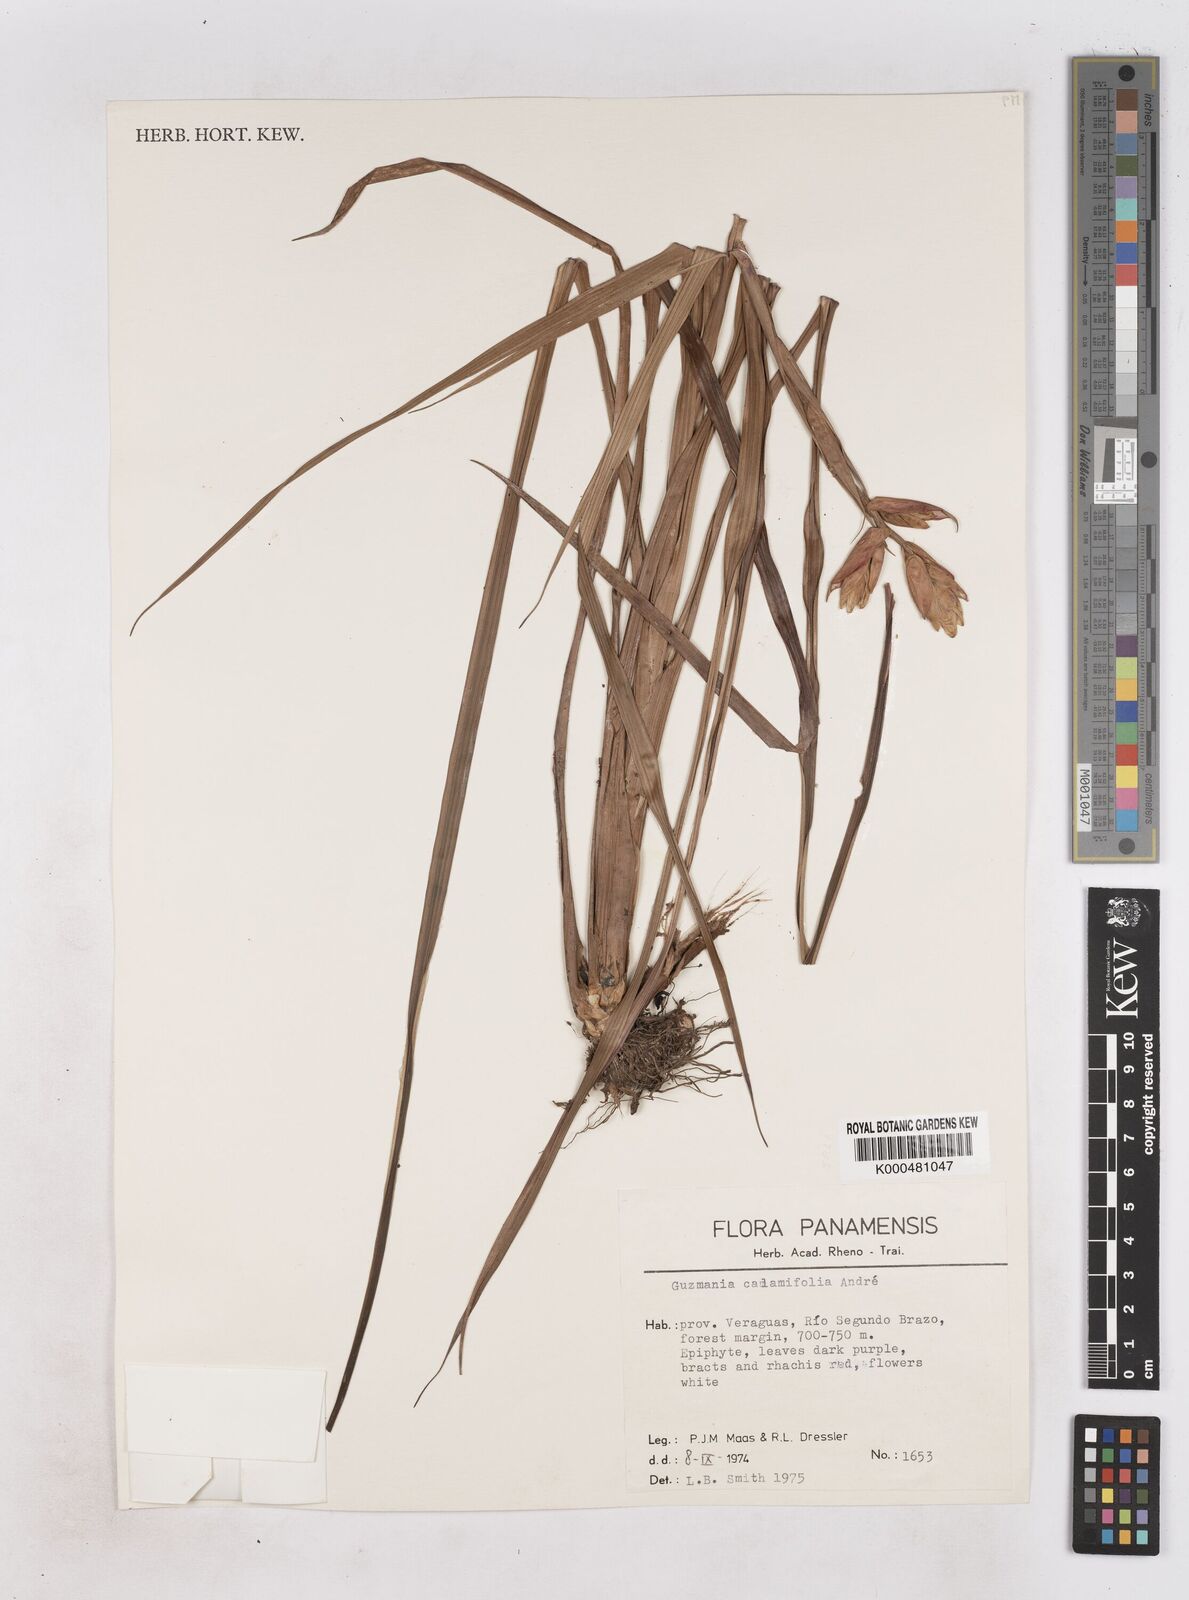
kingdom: Plantae
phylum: Tracheophyta
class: Liliopsida
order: Poales
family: Bromeliaceae
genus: Guzmania
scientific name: Guzmania
